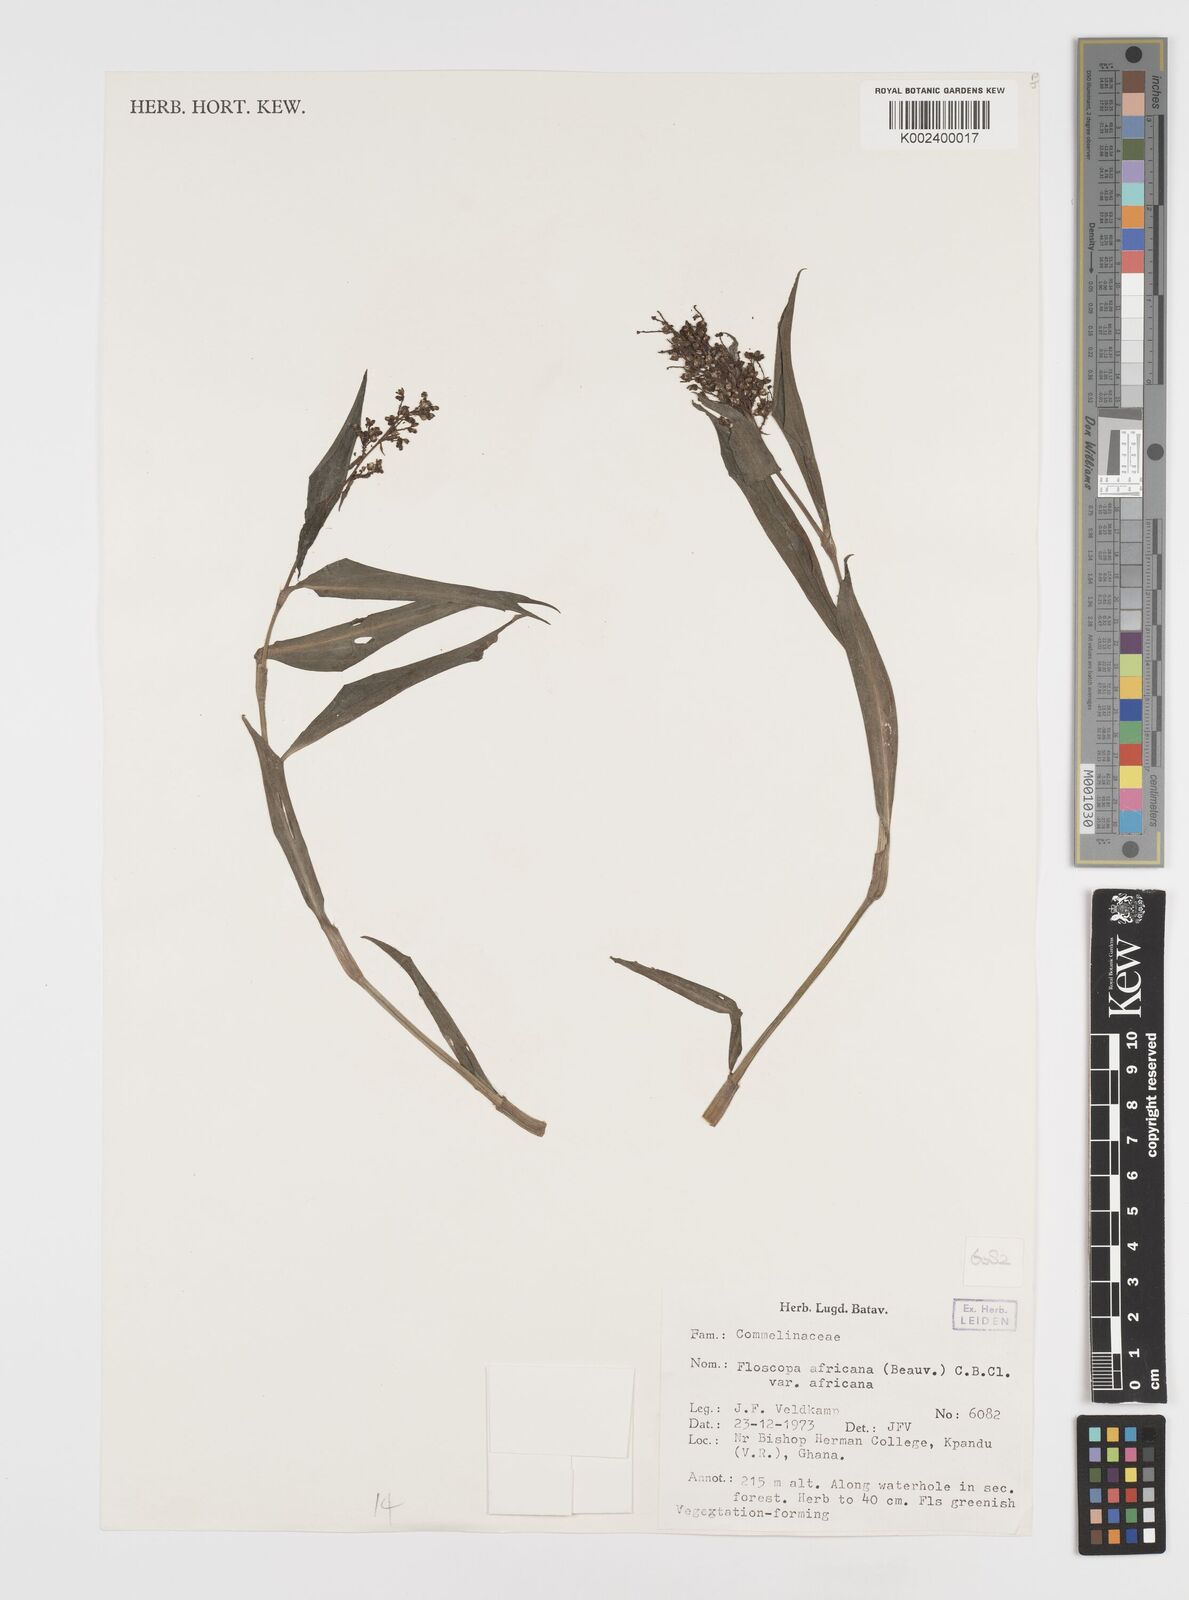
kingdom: Plantae
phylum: Tracheophyta
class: Liliopsida
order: Commelinales
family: Commelinaceae
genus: Floscopa
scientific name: Floscopa africana
